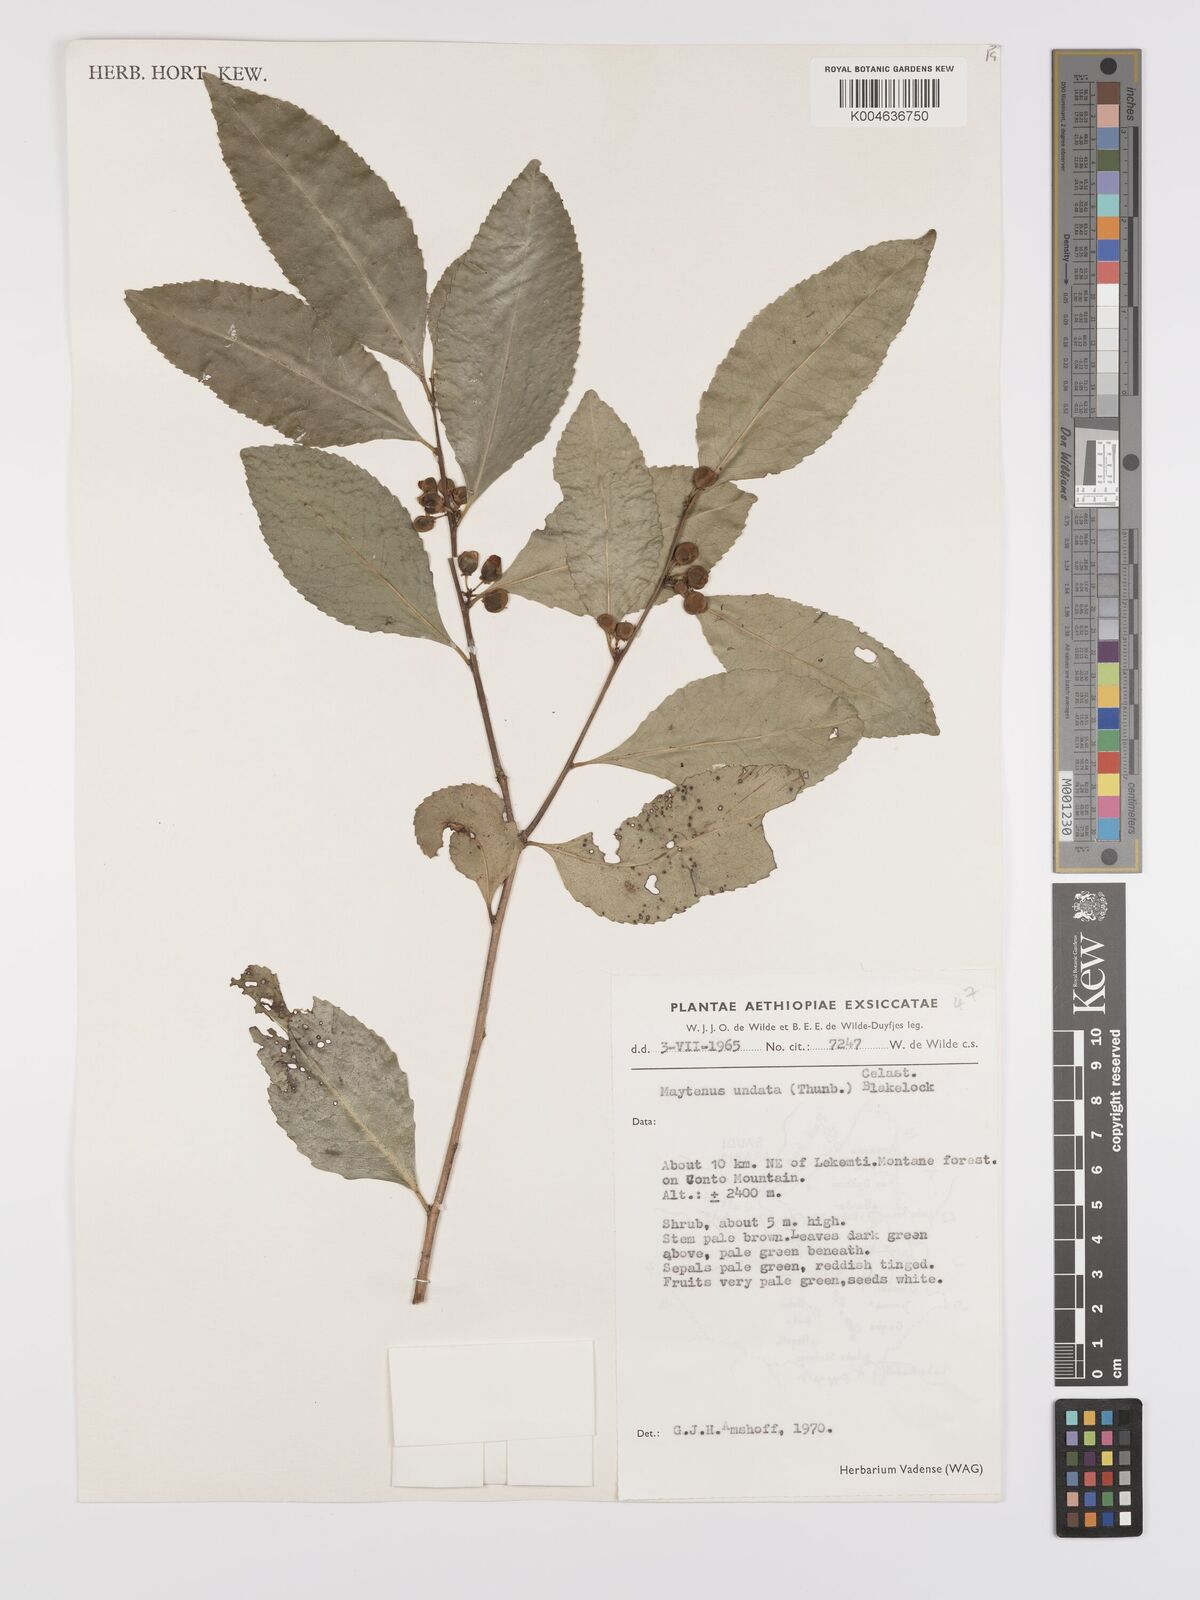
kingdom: Plantae
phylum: Tracheophyta
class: Magnoliopsida
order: Celastrales
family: Celastraceae
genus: Gymnosporia
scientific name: Gymnosporia undata
